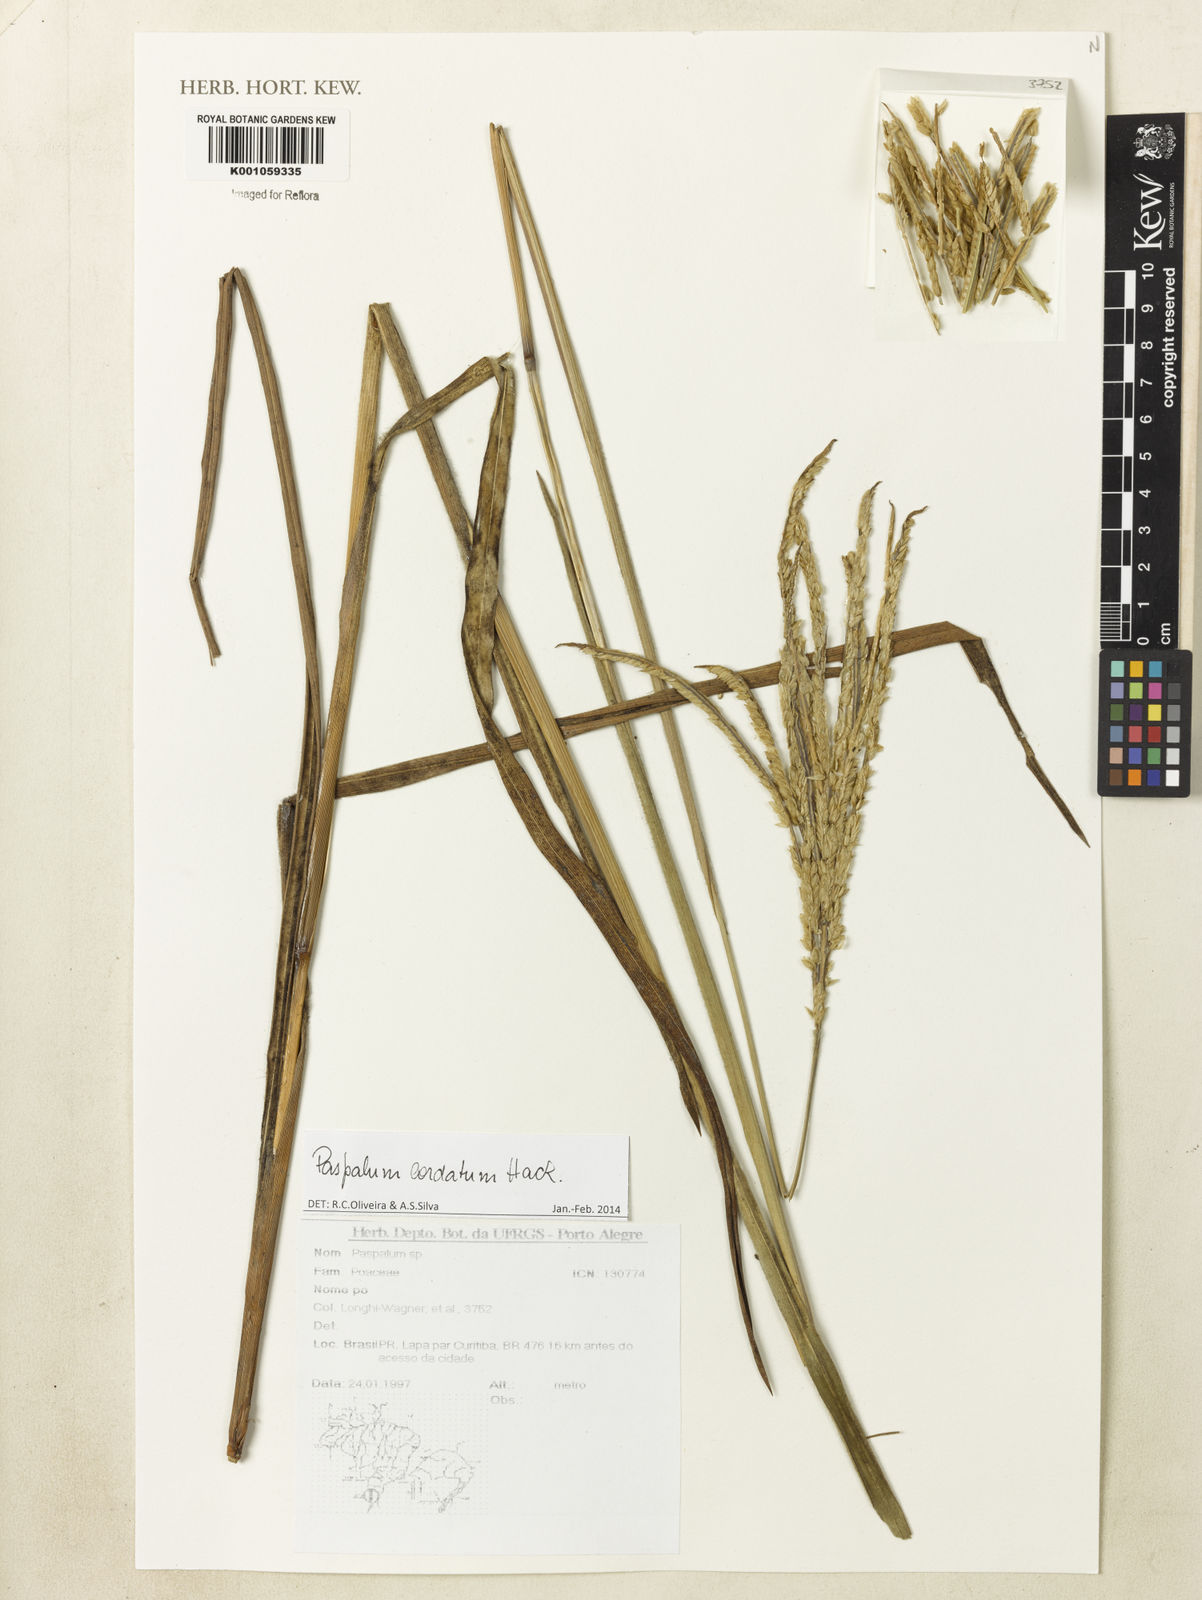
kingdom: Plantae
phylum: Tracheophyta
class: Liliopsida
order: Poales
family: Poaceae
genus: Paspalum
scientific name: Paspalum cordatum
